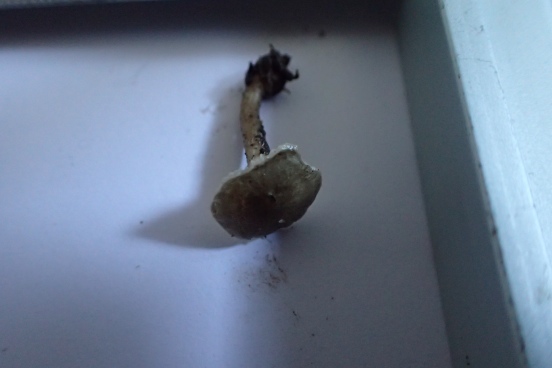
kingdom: Fungi
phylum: Basidiomycota
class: Agaricomycetes
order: Agaricales
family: Hygrophoraceae
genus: Spodocybe
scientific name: Spodocybe trulliformis
